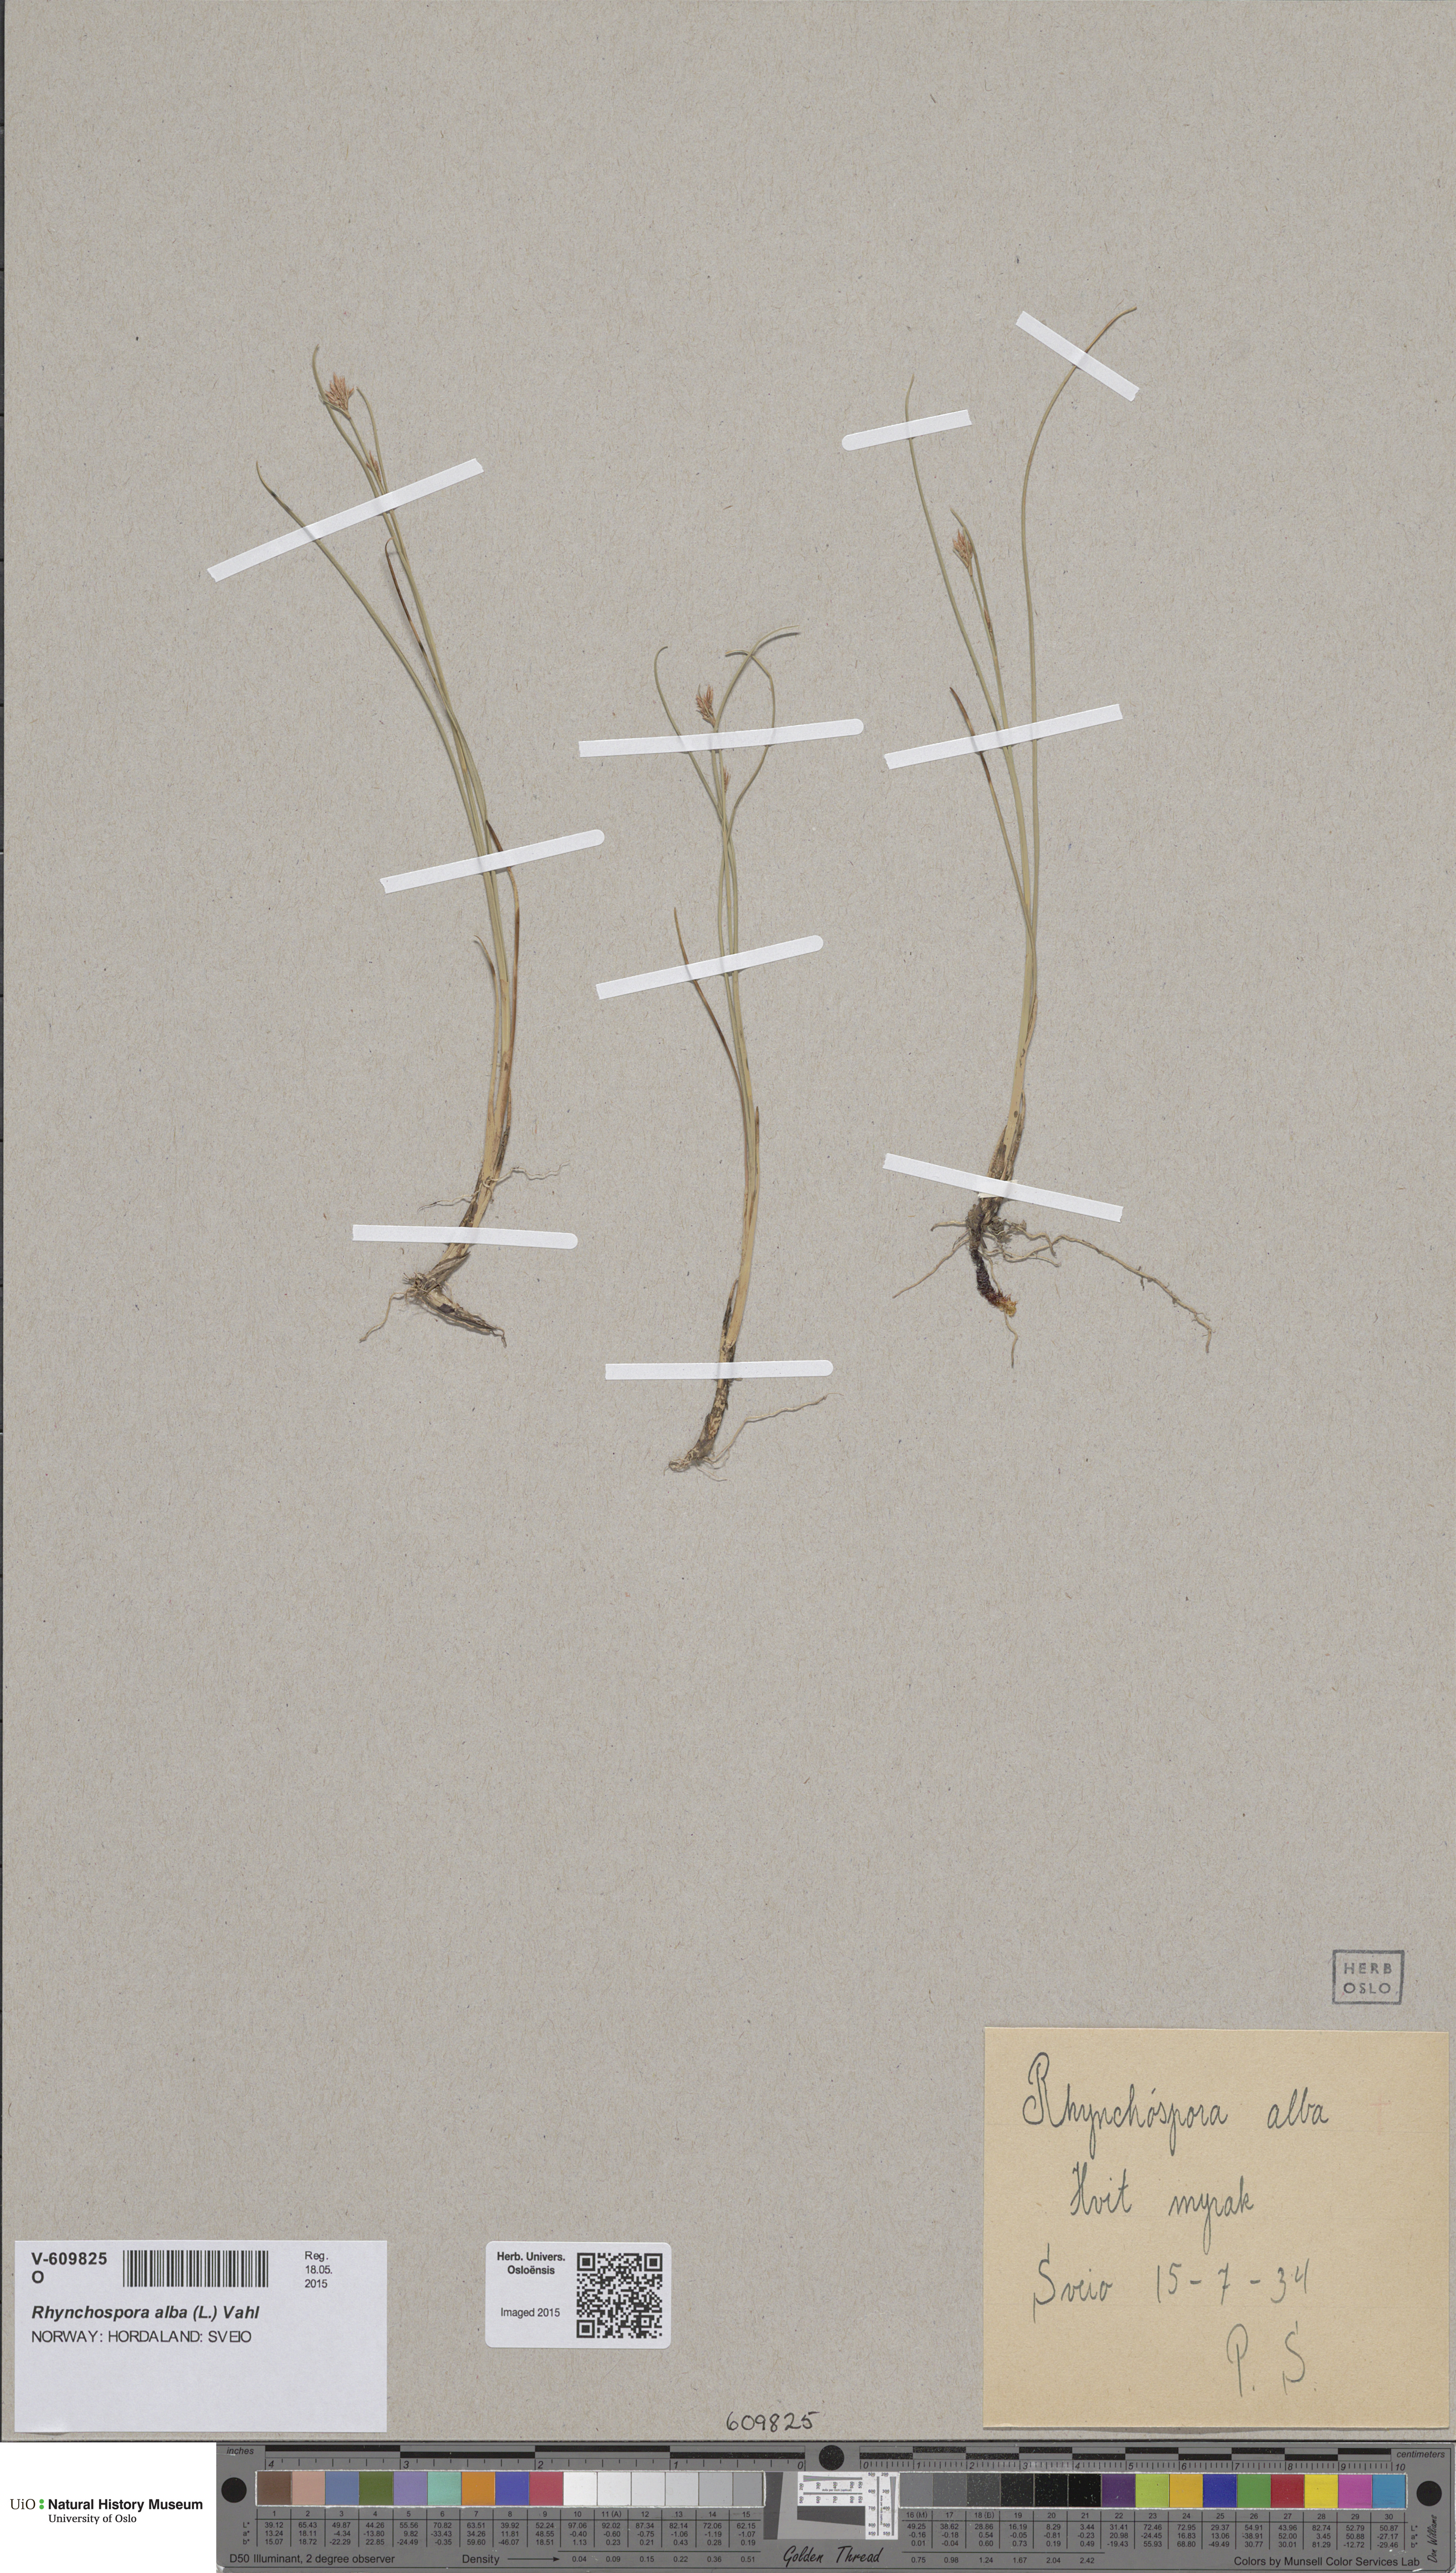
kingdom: Plantae
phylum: Tracheophyta
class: Liliopsida
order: Poales
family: Cyperaceae
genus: Rhynchospora
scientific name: Rhynchospora alba
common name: White beak-sedge
